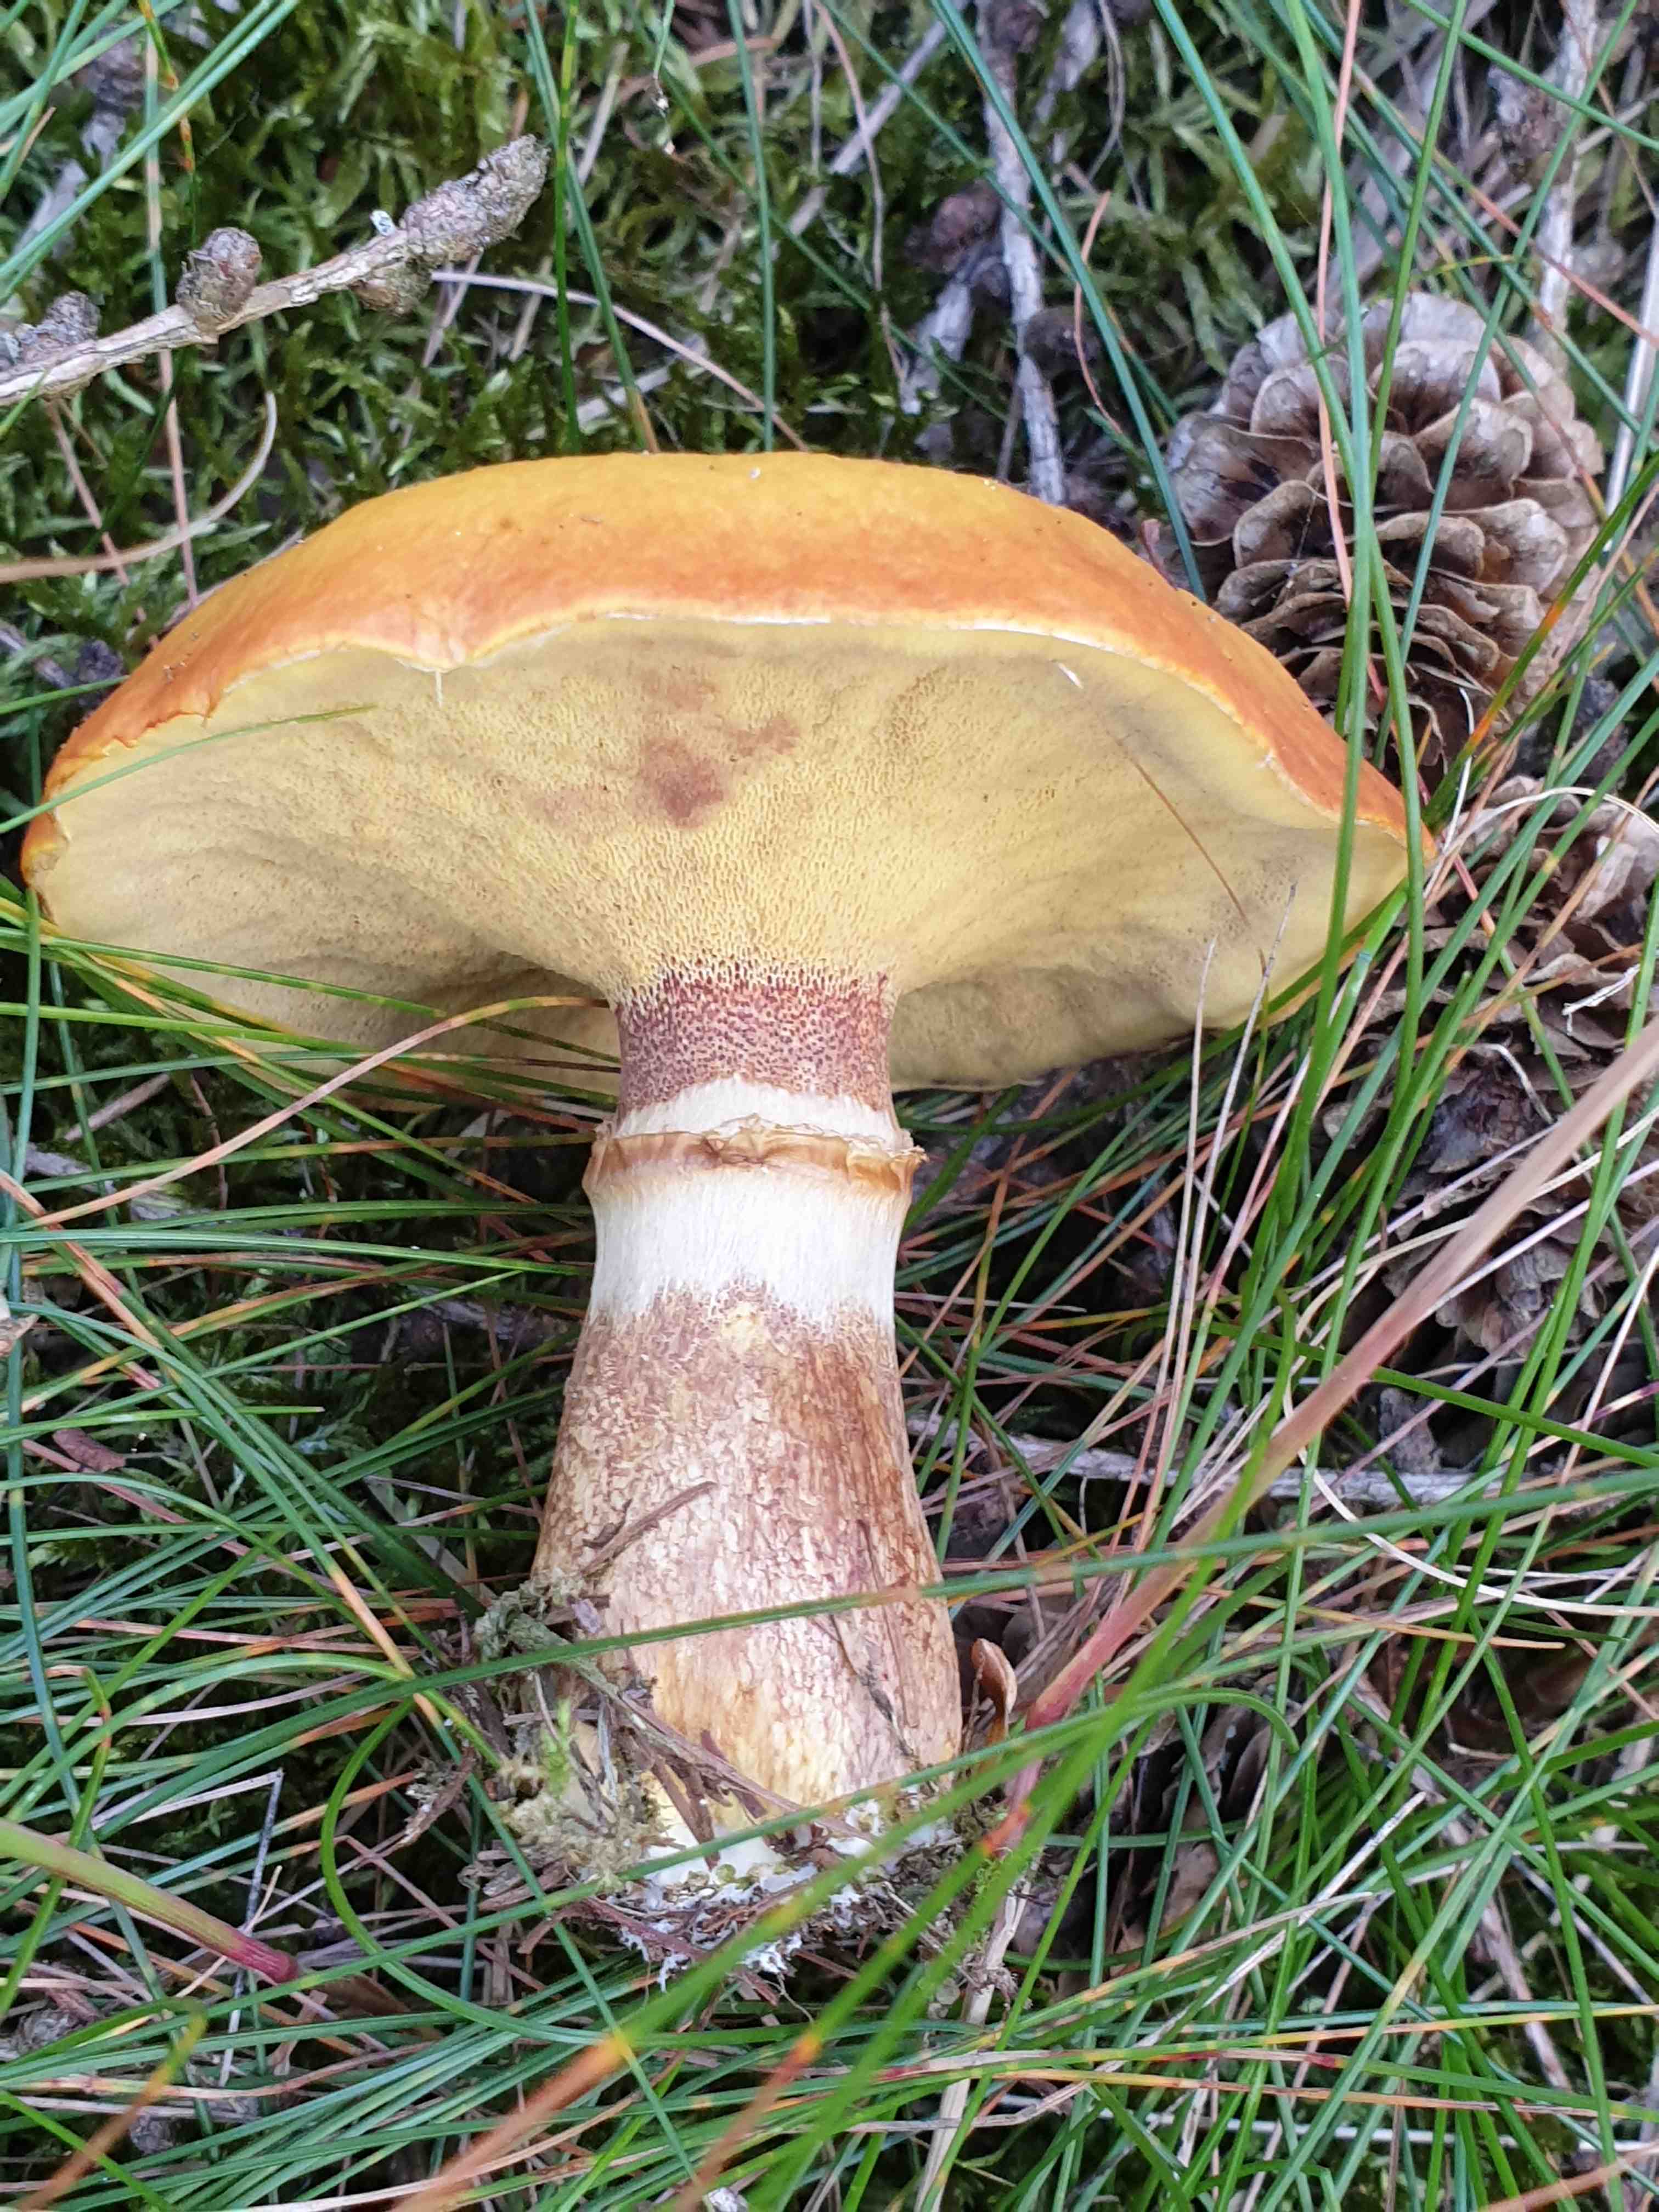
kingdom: Fungi
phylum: Basidiomycota
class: Agaricomycetes
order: Boletales
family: Suillaceae
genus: Suillus
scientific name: Suillus grevillei
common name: lærke-slimrørhat
